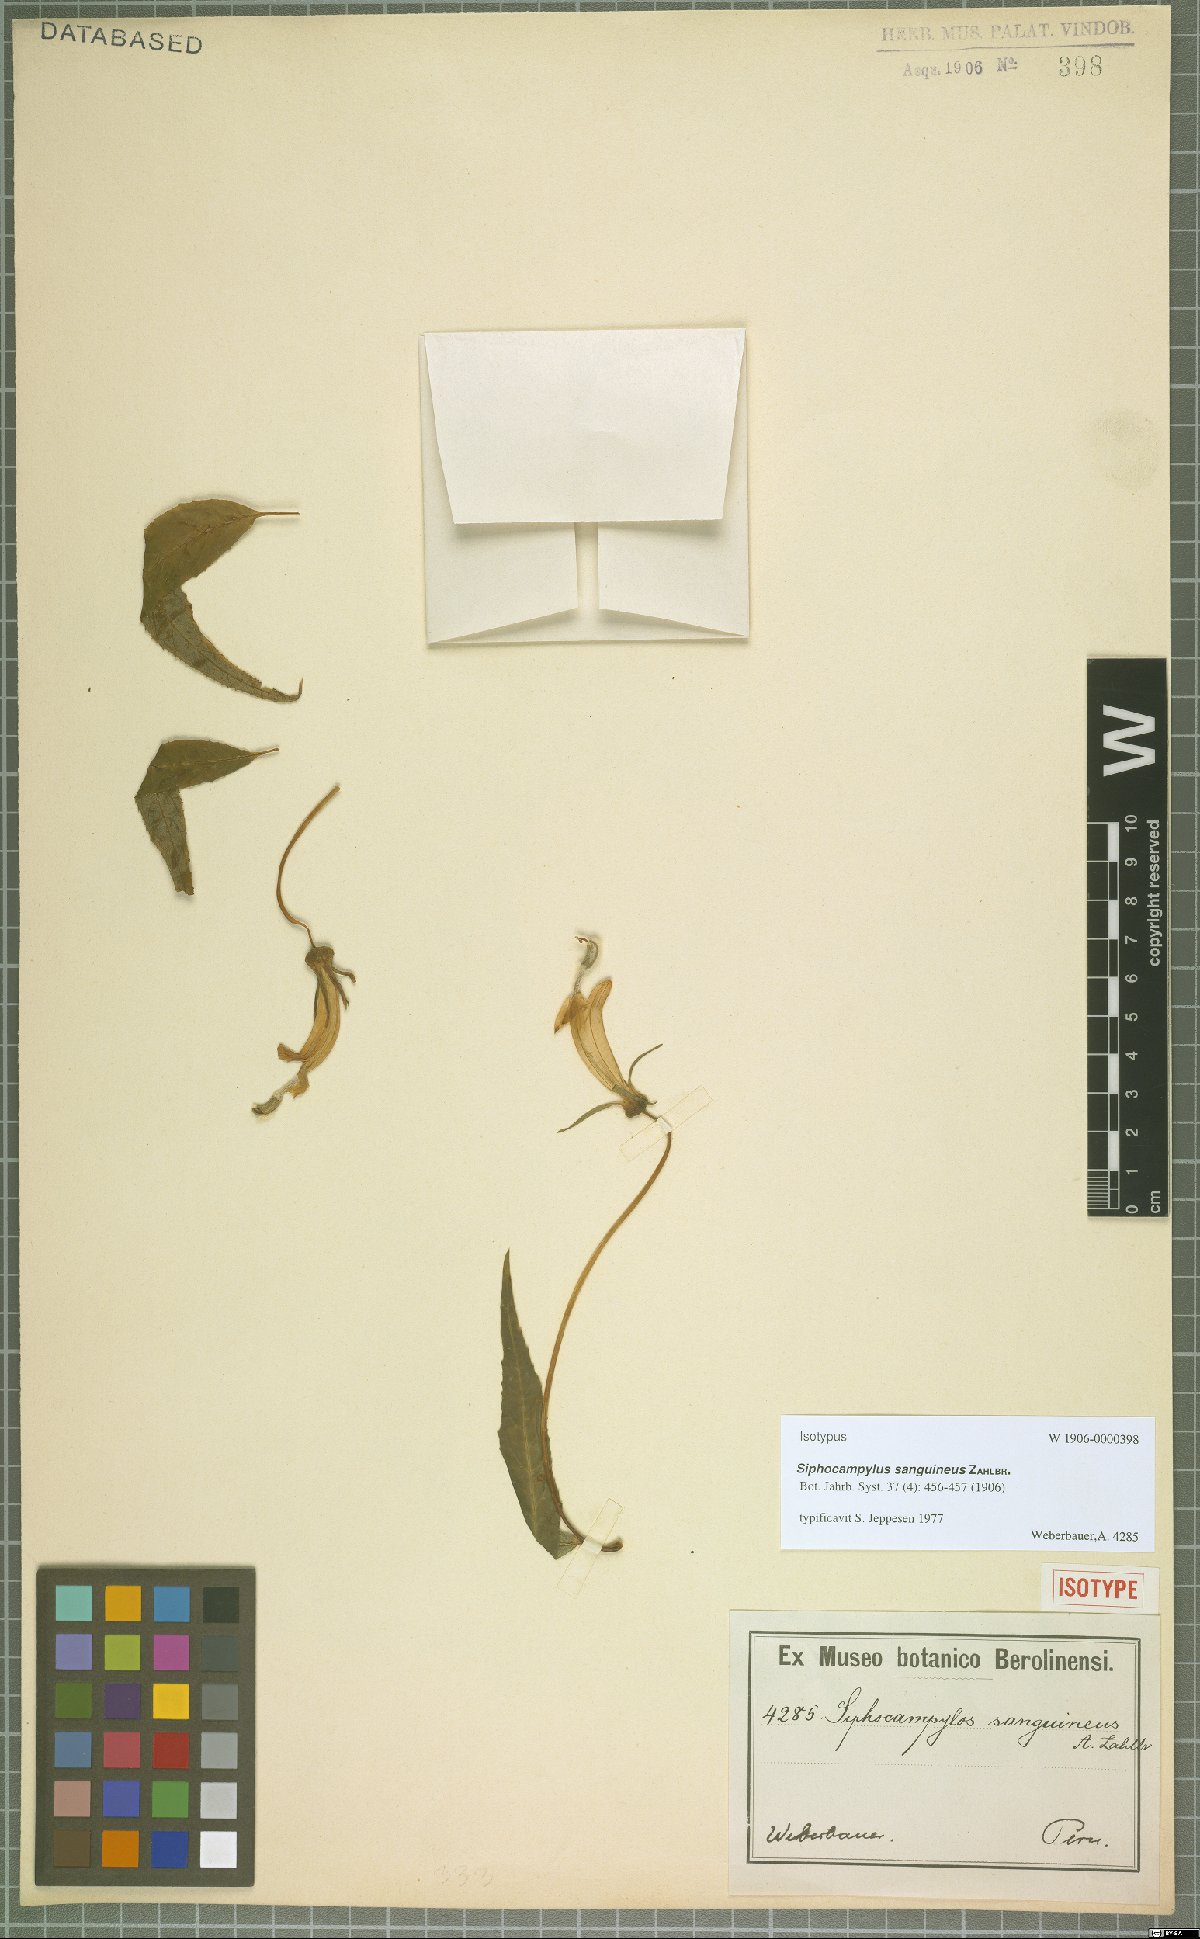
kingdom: Plantae
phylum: Tracheophyta
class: Magnoliopsida
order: Asterales
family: Campanulaceae
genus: Siphocampylus
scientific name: Siphocampylus sanguineus
